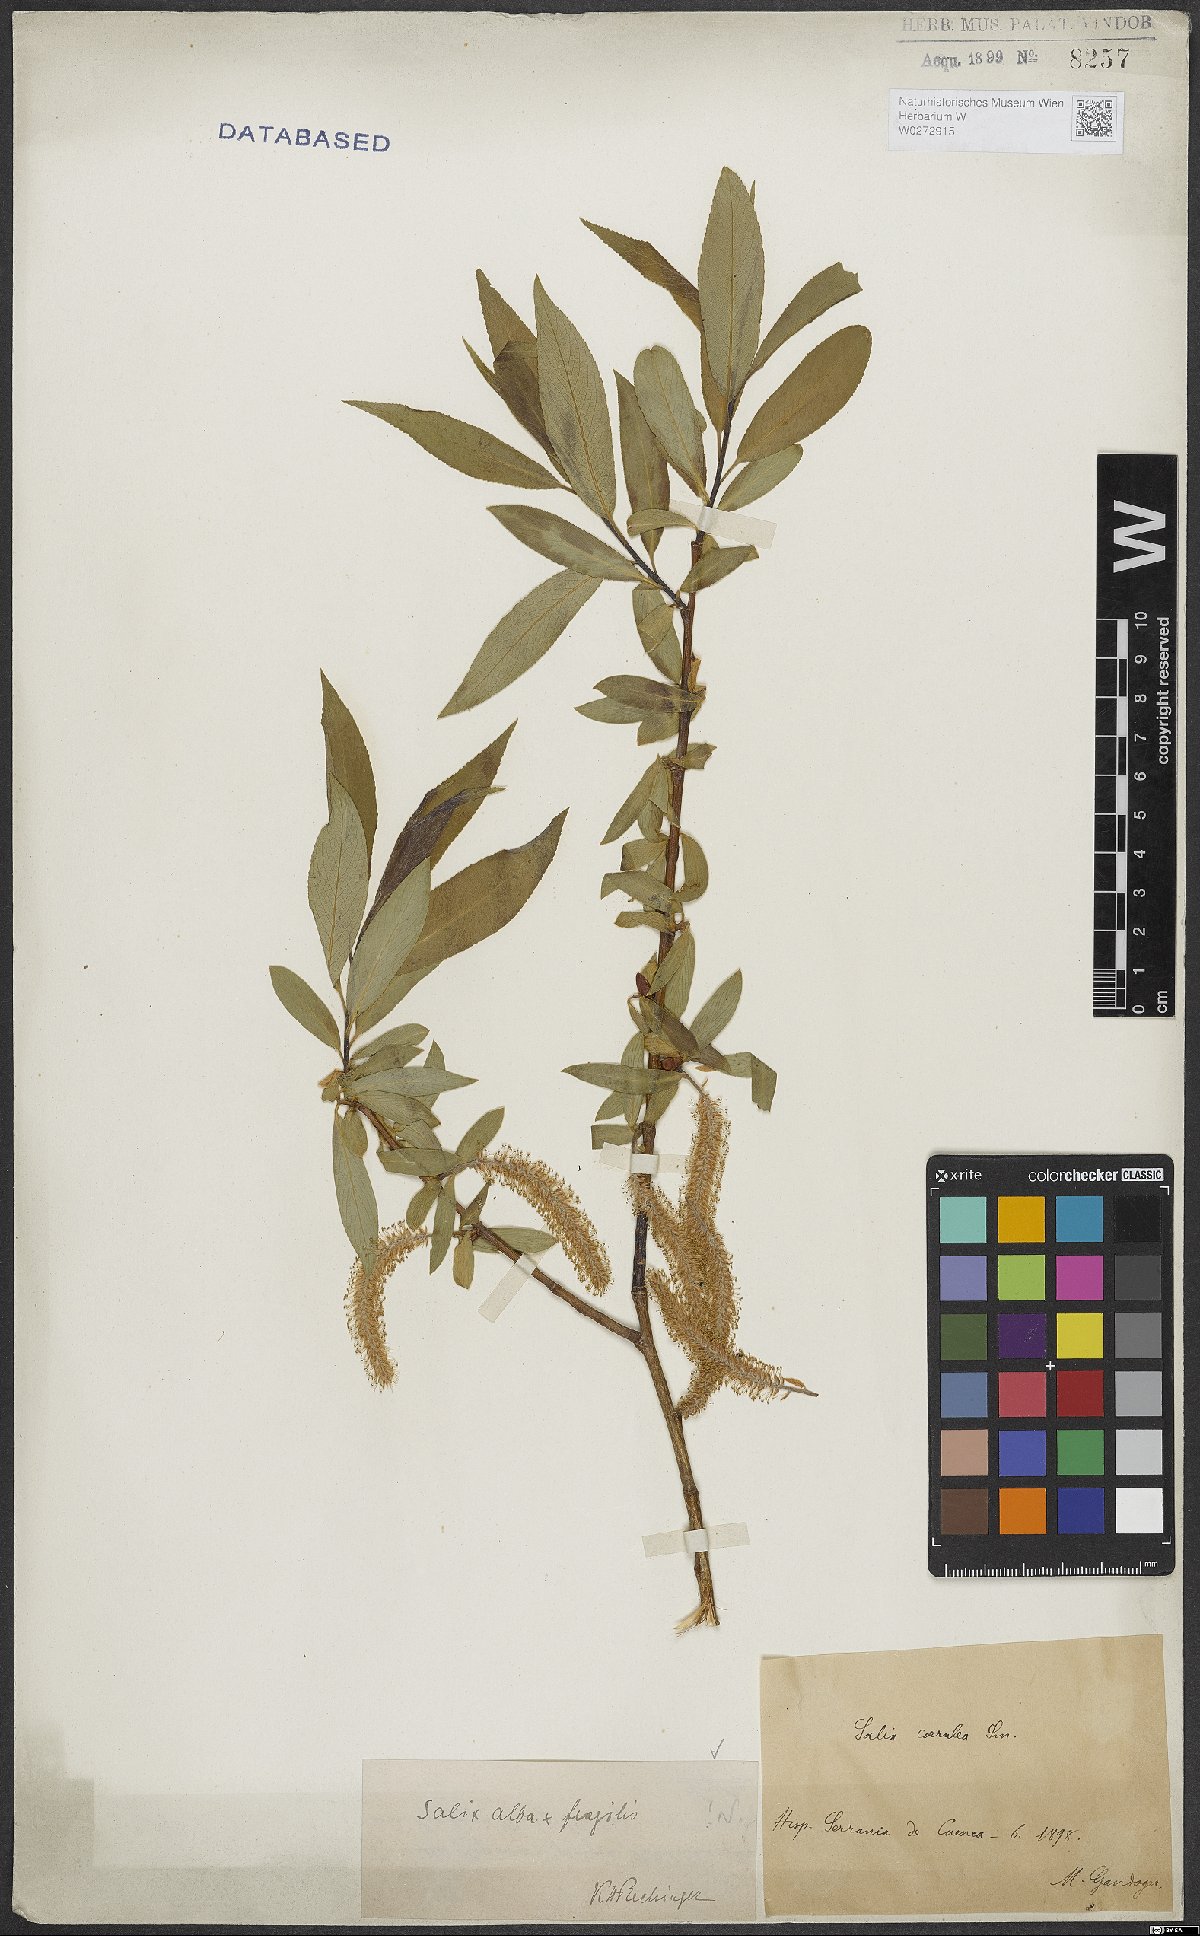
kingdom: Plantae
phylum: Tracheophyta
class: Magnoliopsida
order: Malpighiales
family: Salicaceae
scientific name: Salicaceae
